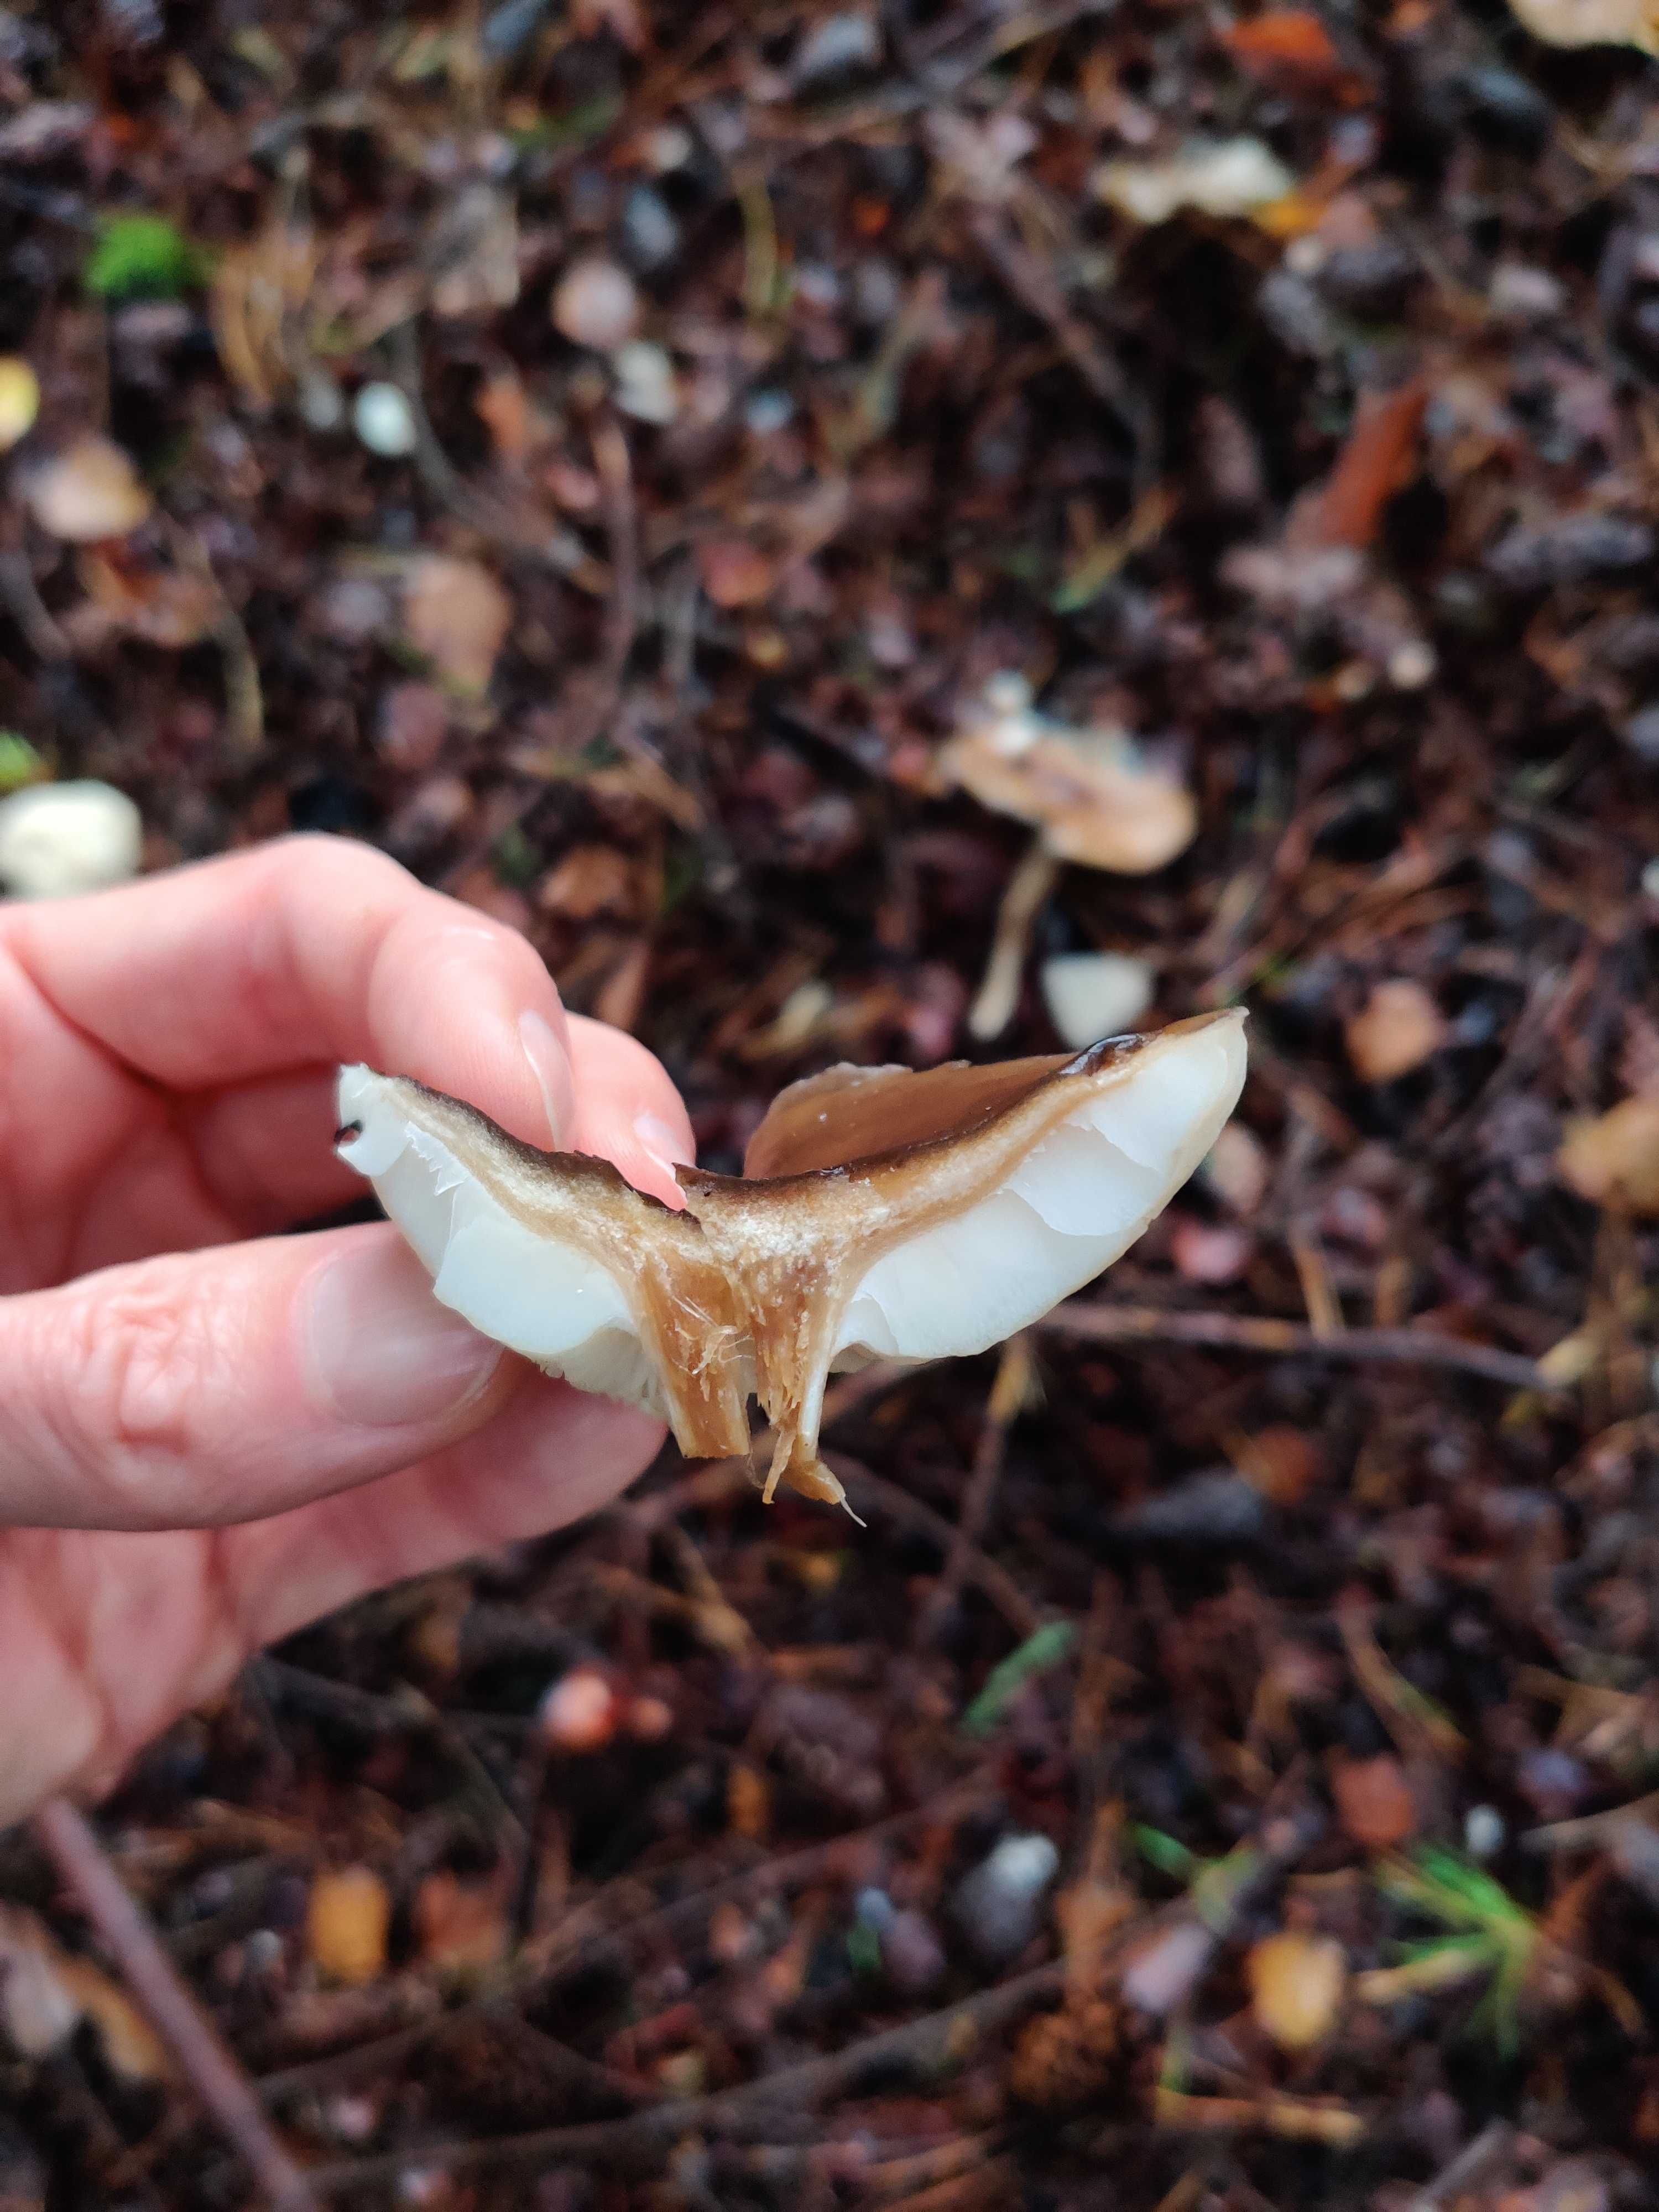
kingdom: Fungi
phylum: Basidiomycota
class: Agaricomycetes
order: Agaricales
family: Tricholomataceae
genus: Melanoleuca
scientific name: Melanoleuca
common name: munkehat
